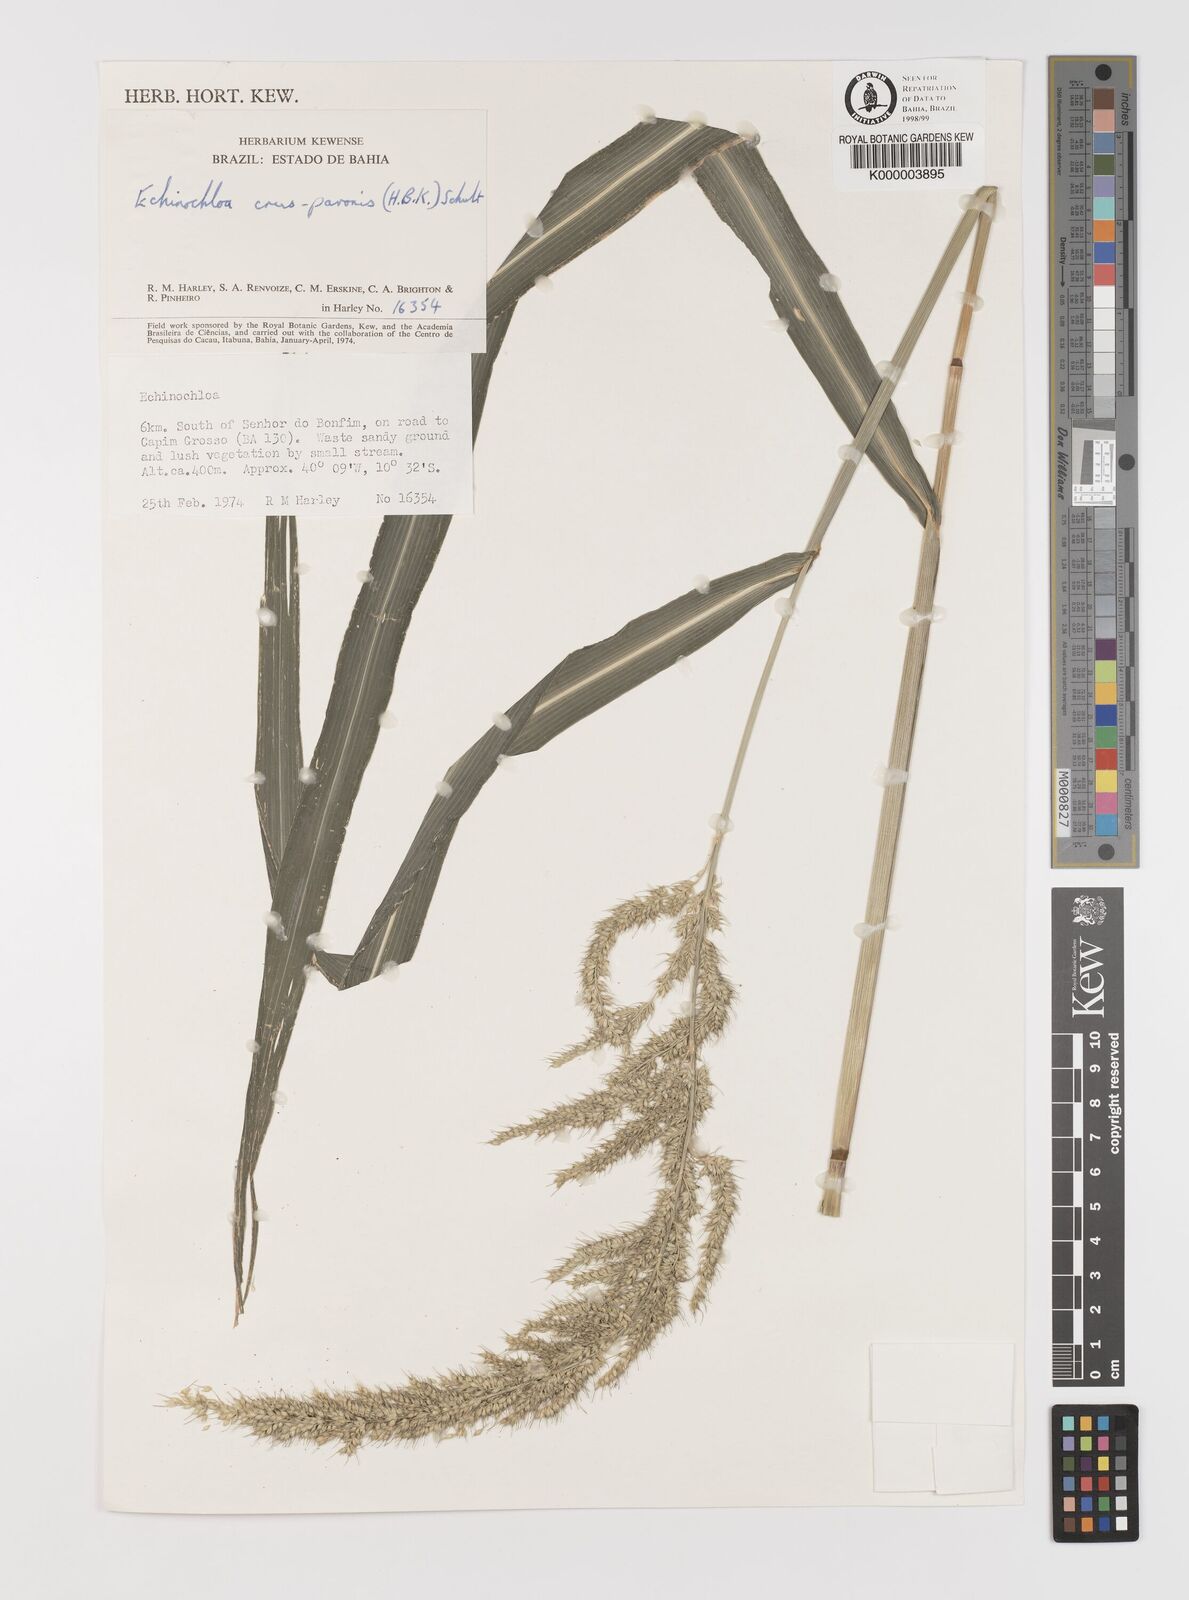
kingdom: Plantae
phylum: Tracheophyta
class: Liliopsida
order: Poales
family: Poaceae
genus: Echinochloa
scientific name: Echinochloa crus-pavonis
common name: Gulf cockspur grass
